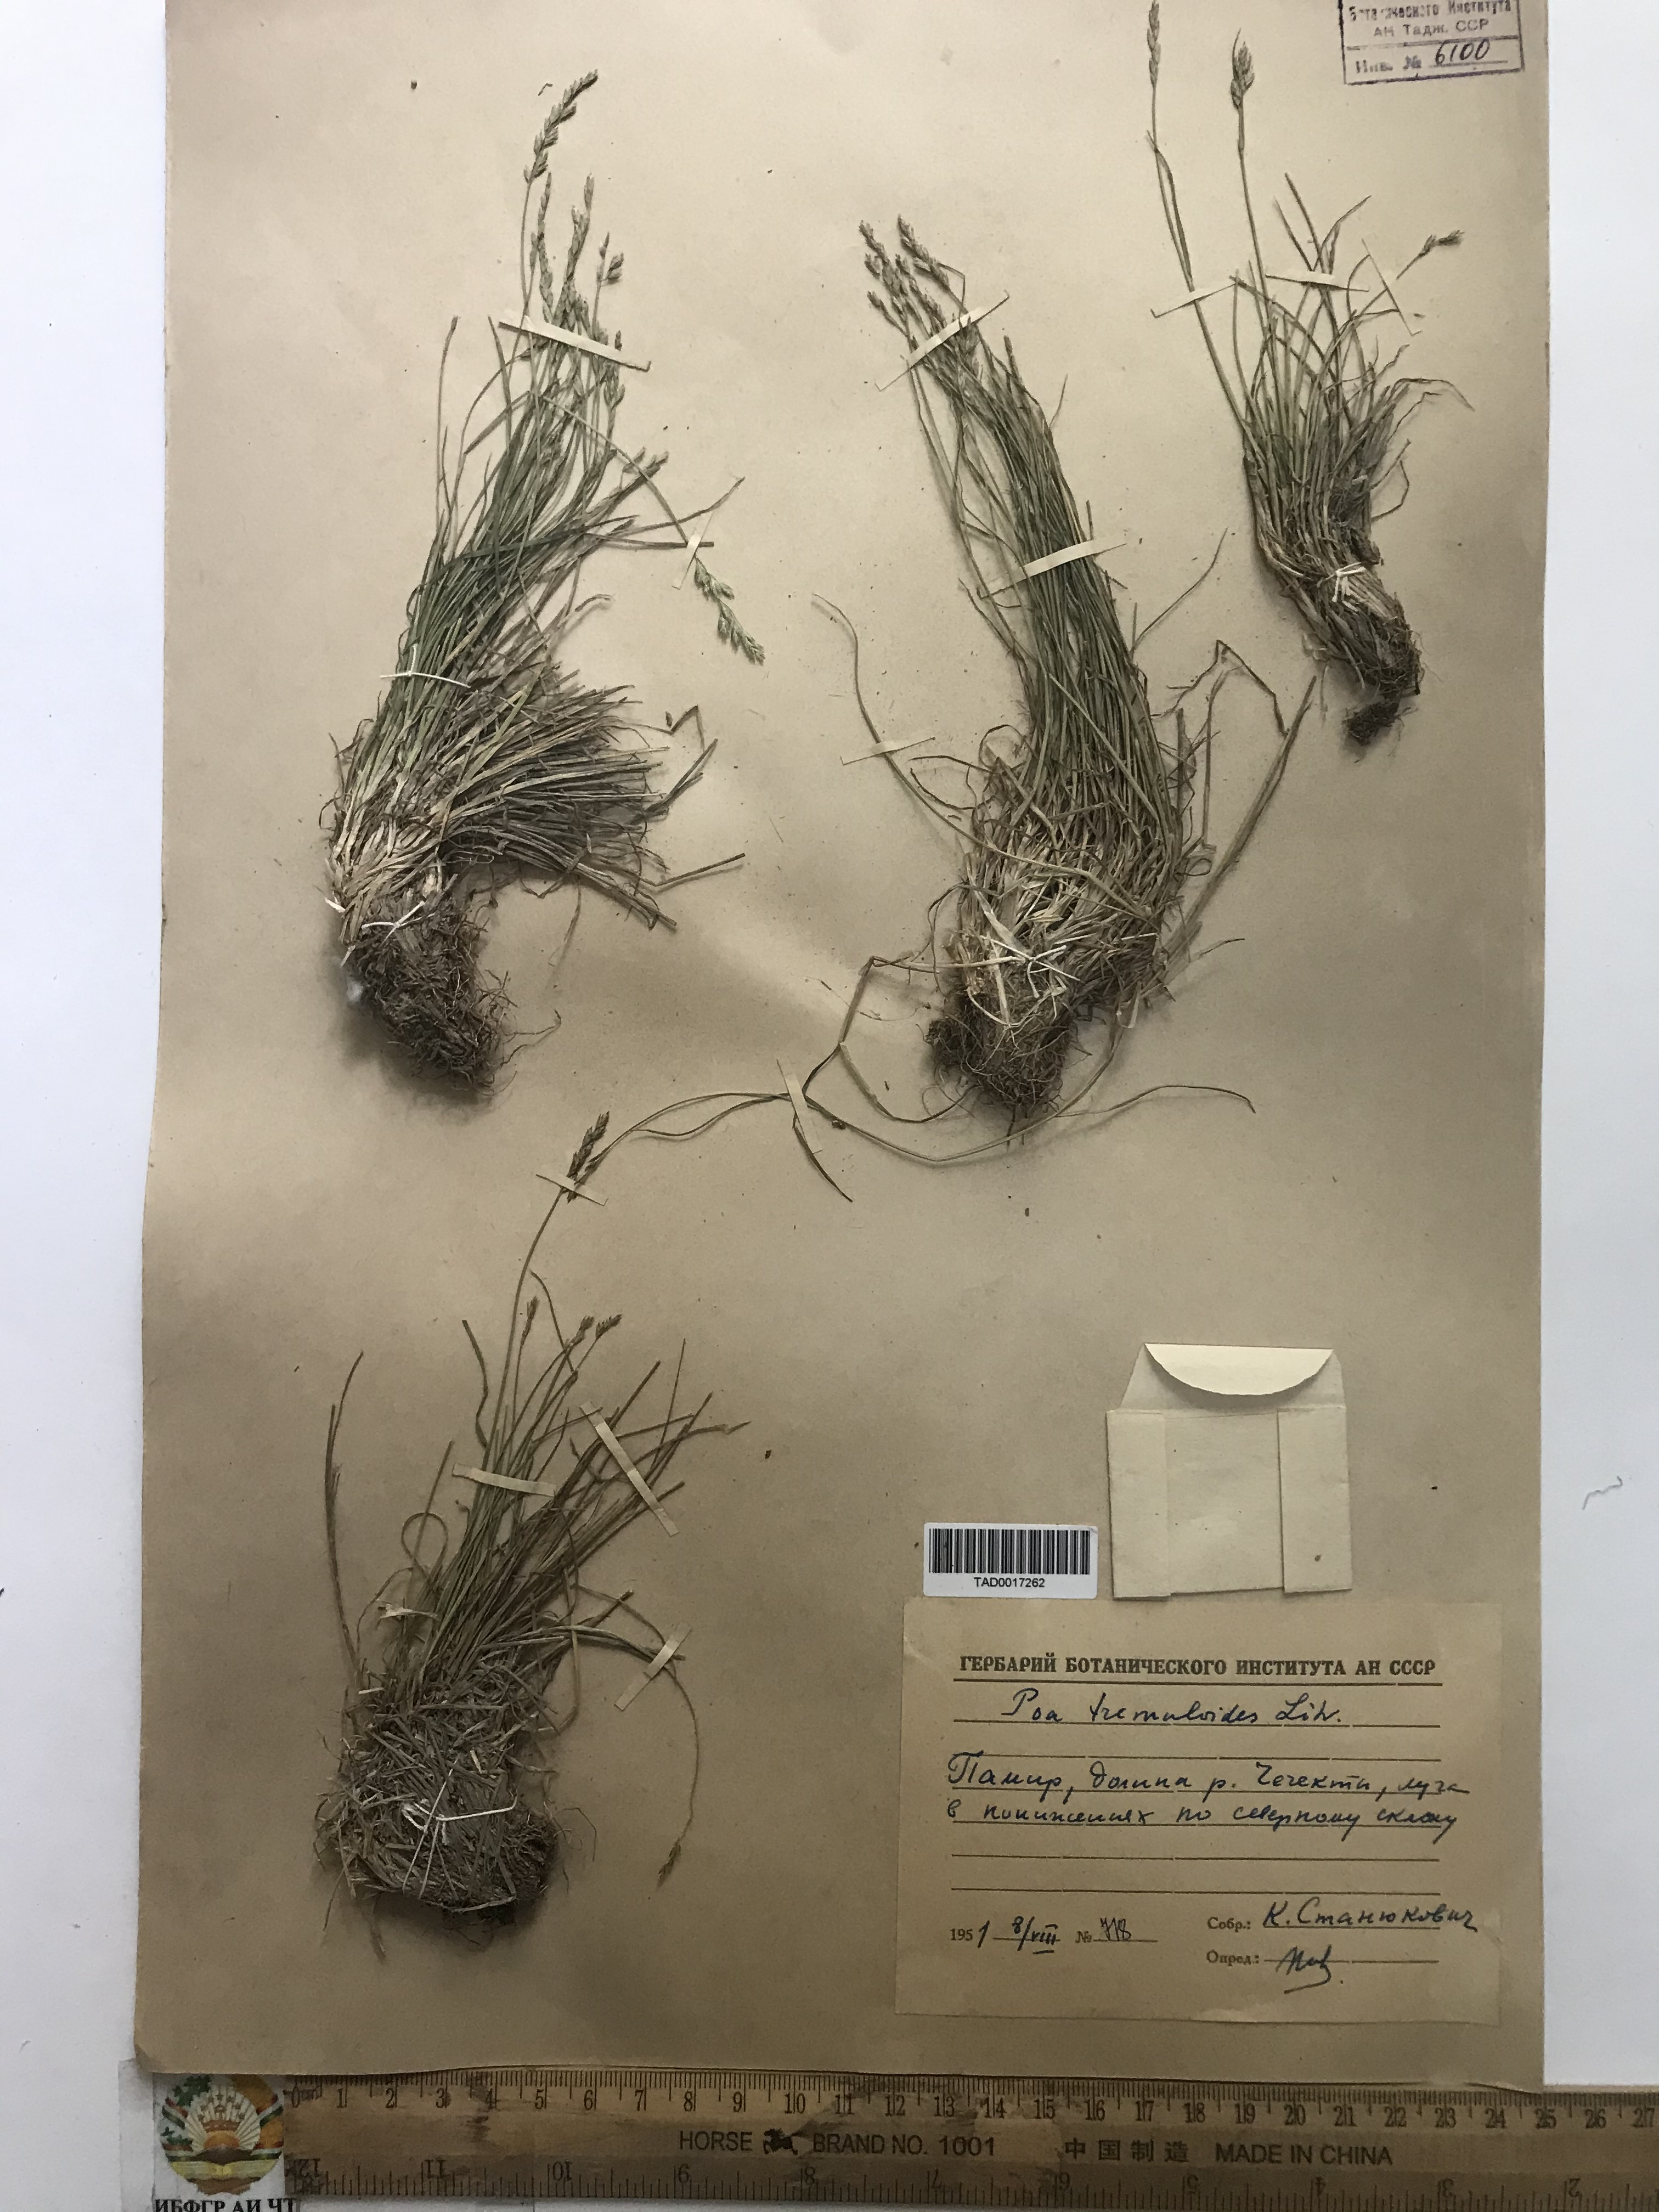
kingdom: Plantae
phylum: Tracheophyta
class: Liliopsida
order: Poales
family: Poaceae
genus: Poa
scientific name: Poa glauca
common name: Glaucous bluegrass
